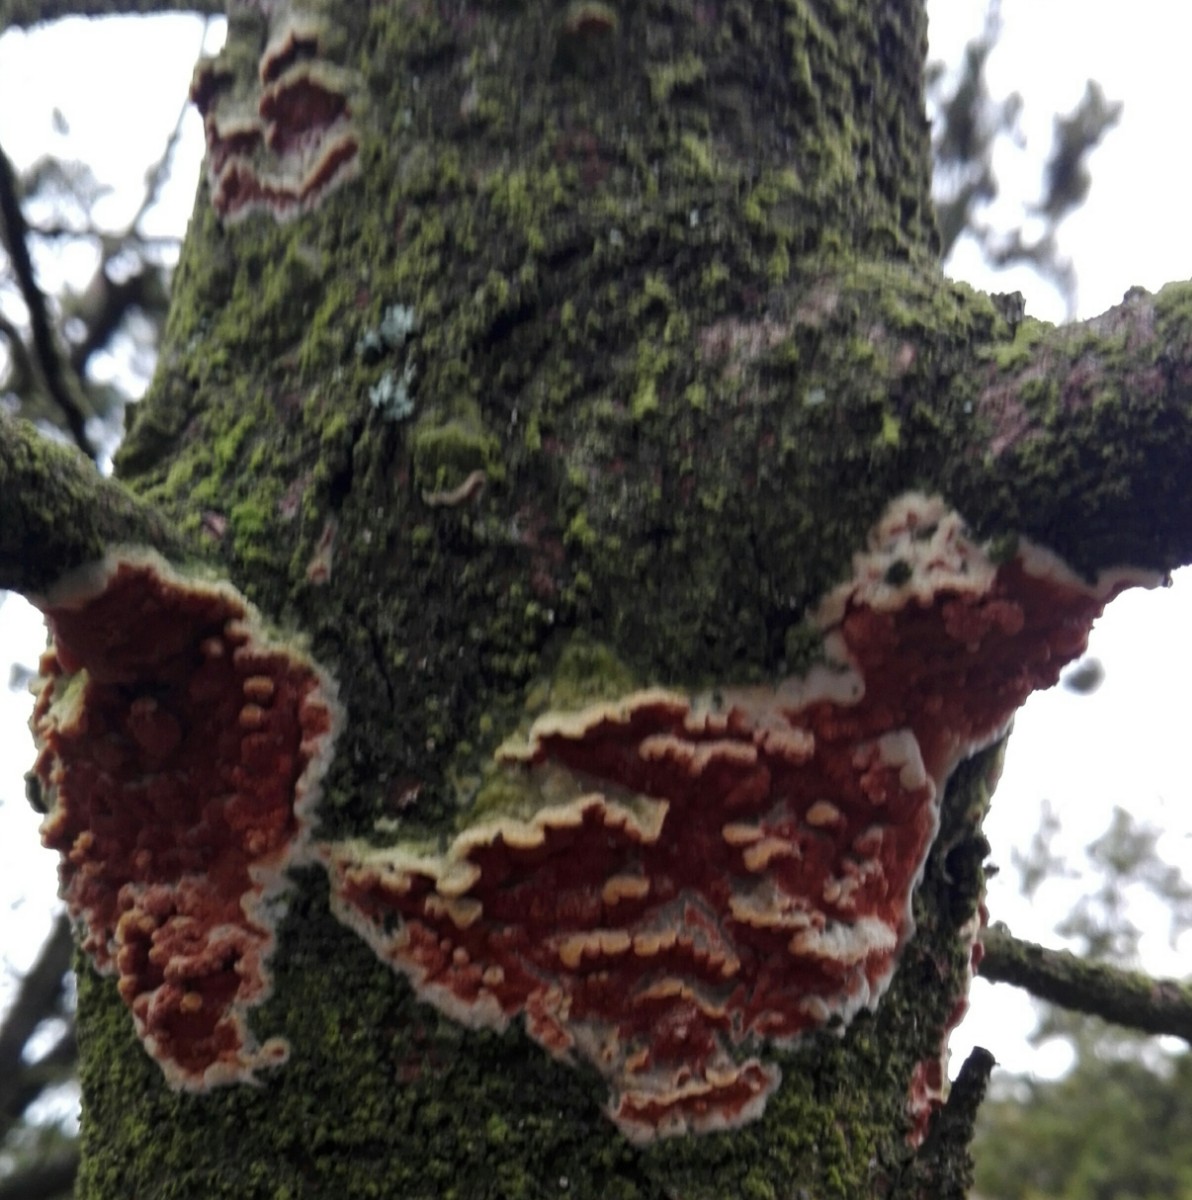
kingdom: Fungi
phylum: Basidiomycota
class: Agaricomycetes
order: Polyporales
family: Irpicaceae
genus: Meruliopsis
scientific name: Meruliopsis taxicola
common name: purpurbrun foldporesvamp
